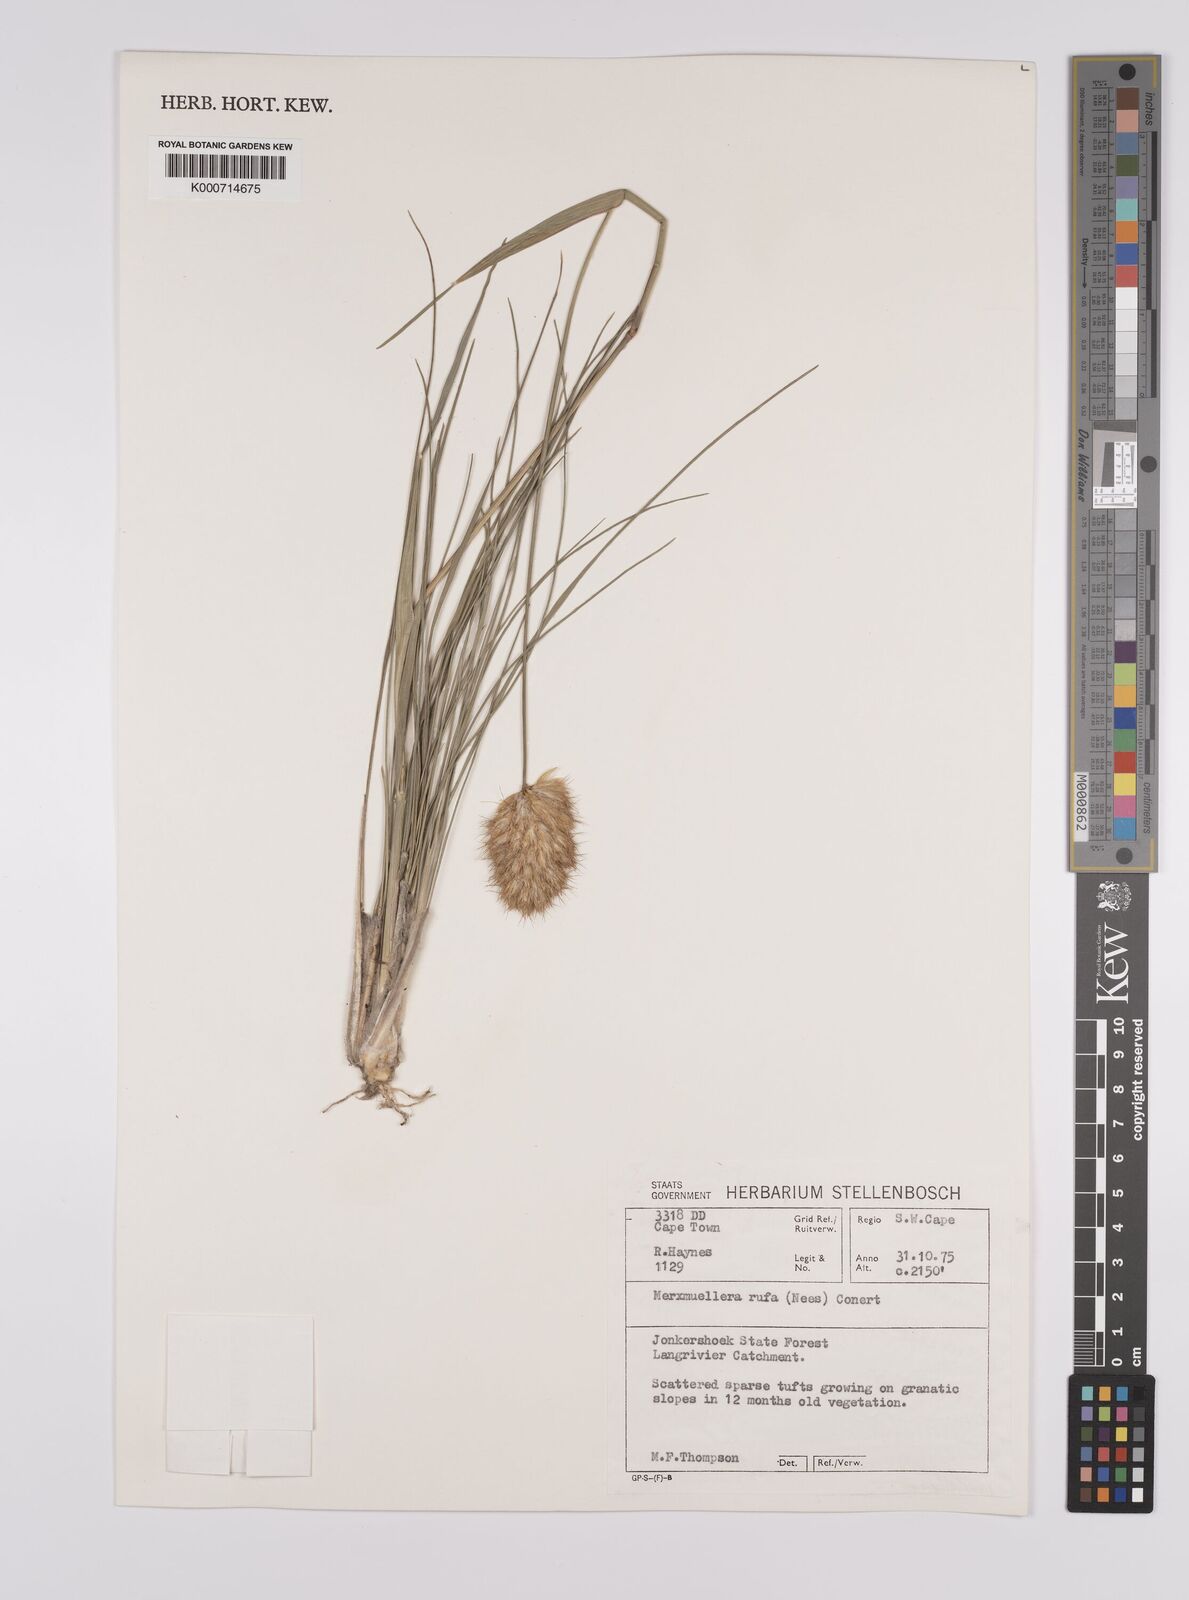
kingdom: Plantae
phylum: Tracheophyta
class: Liliopsida
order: Poales
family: Poaceae
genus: Rytidosperma
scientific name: Rytidosperma
